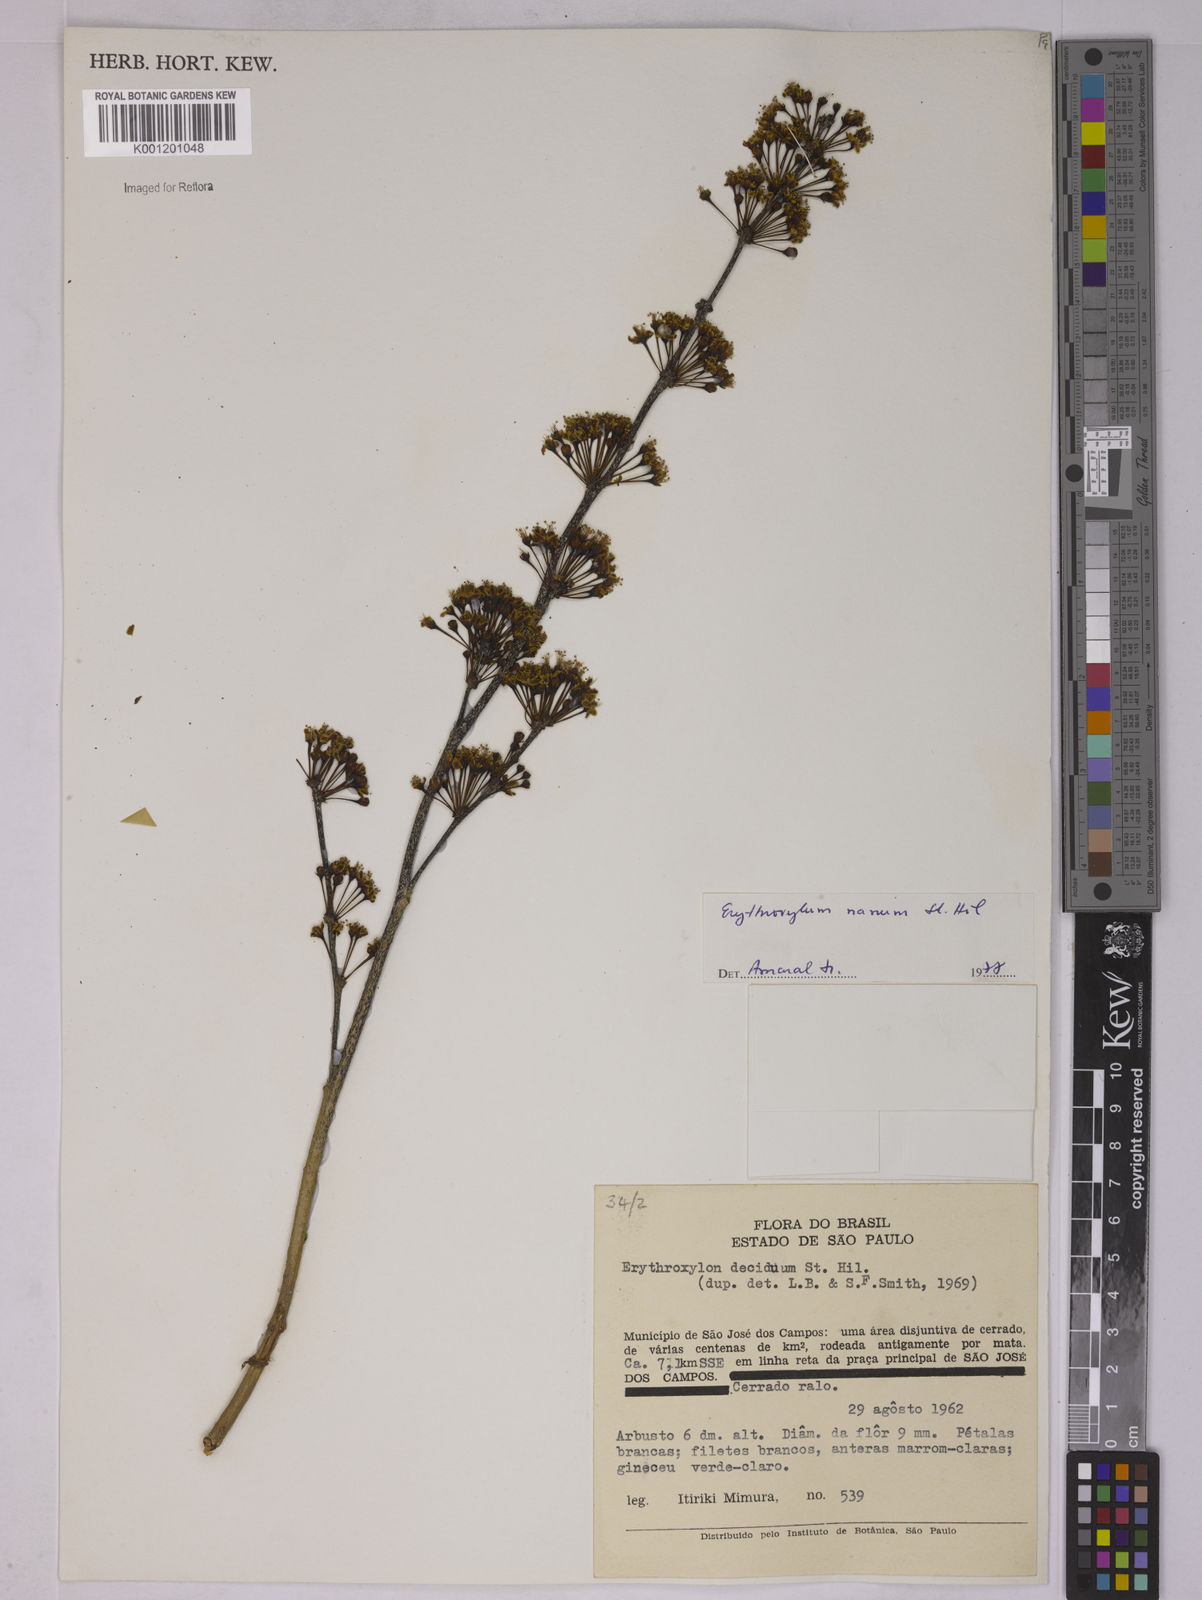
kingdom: Plantae
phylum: Tracheophyta
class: Magnoliopsida
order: Malpighiales
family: Erythroxylaceae
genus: Erythroxylum
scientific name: Erythroxylum deciduum
